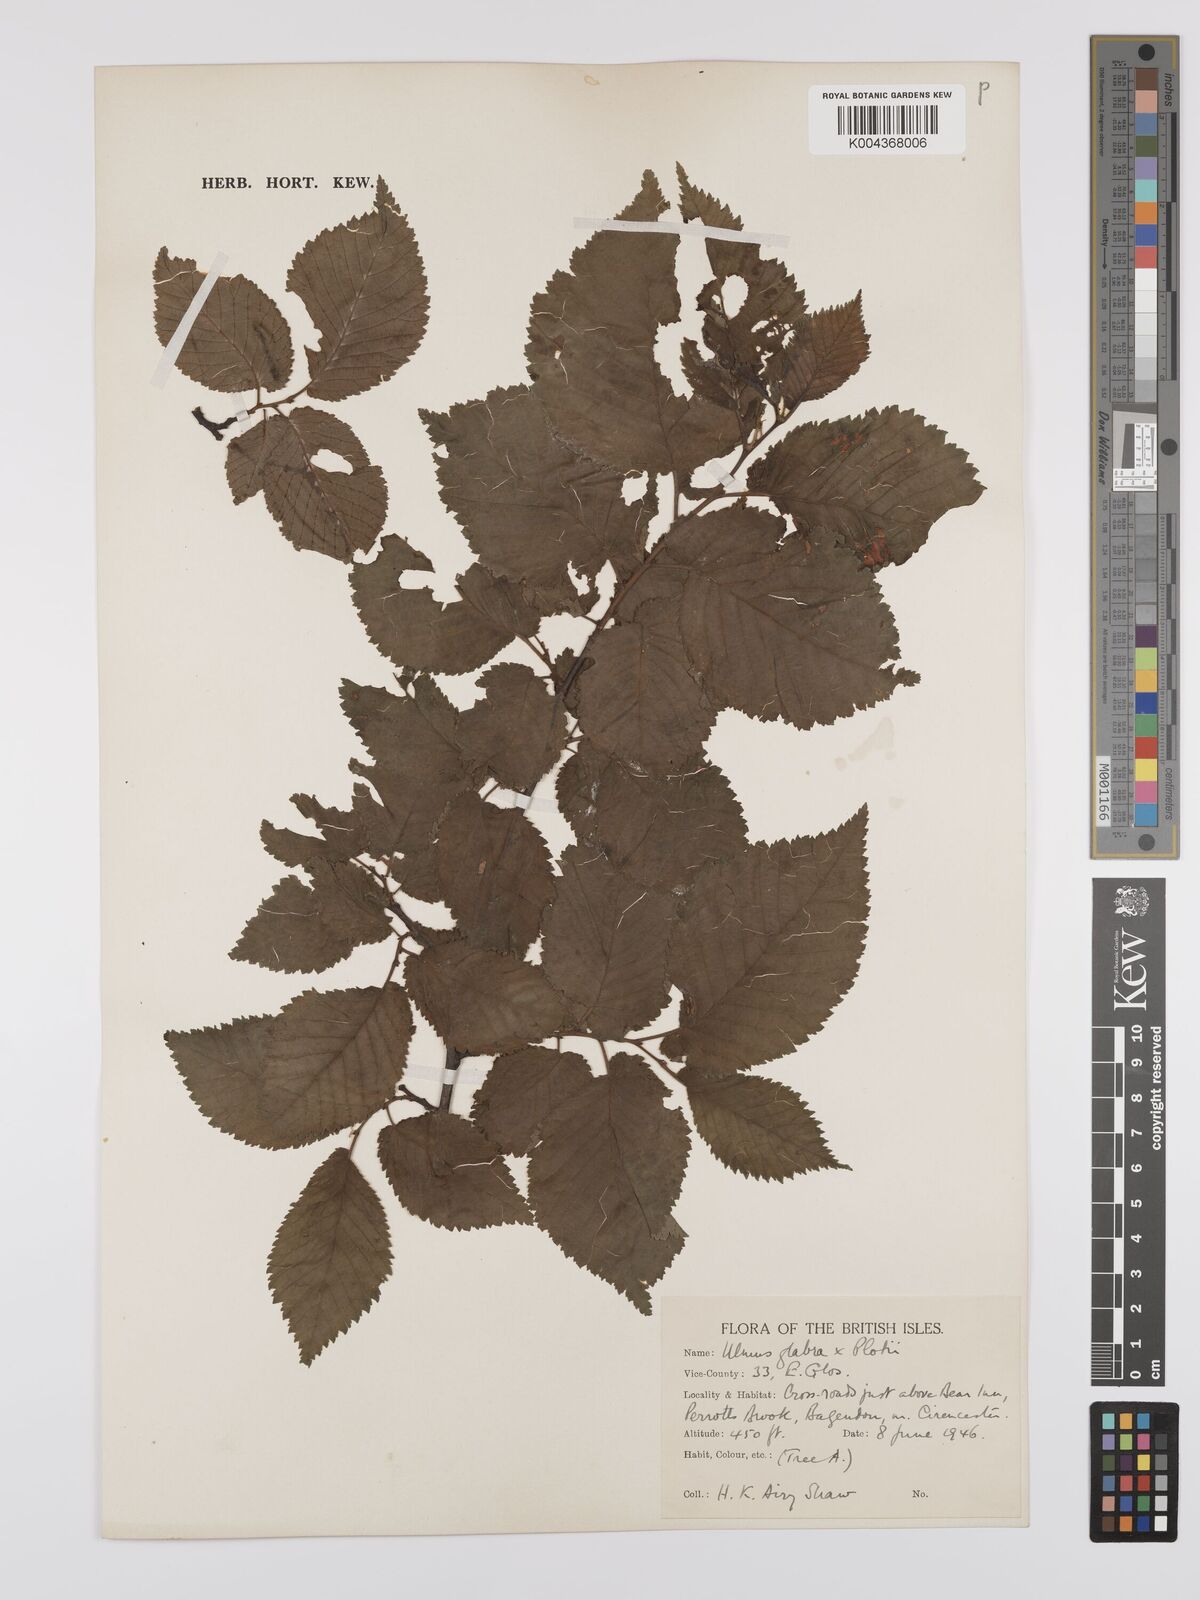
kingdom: Plantae
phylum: Tracheophyta
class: Magnoliopsida
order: Rosales
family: Ulmaceae
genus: Ulmus
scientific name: Ulmus
